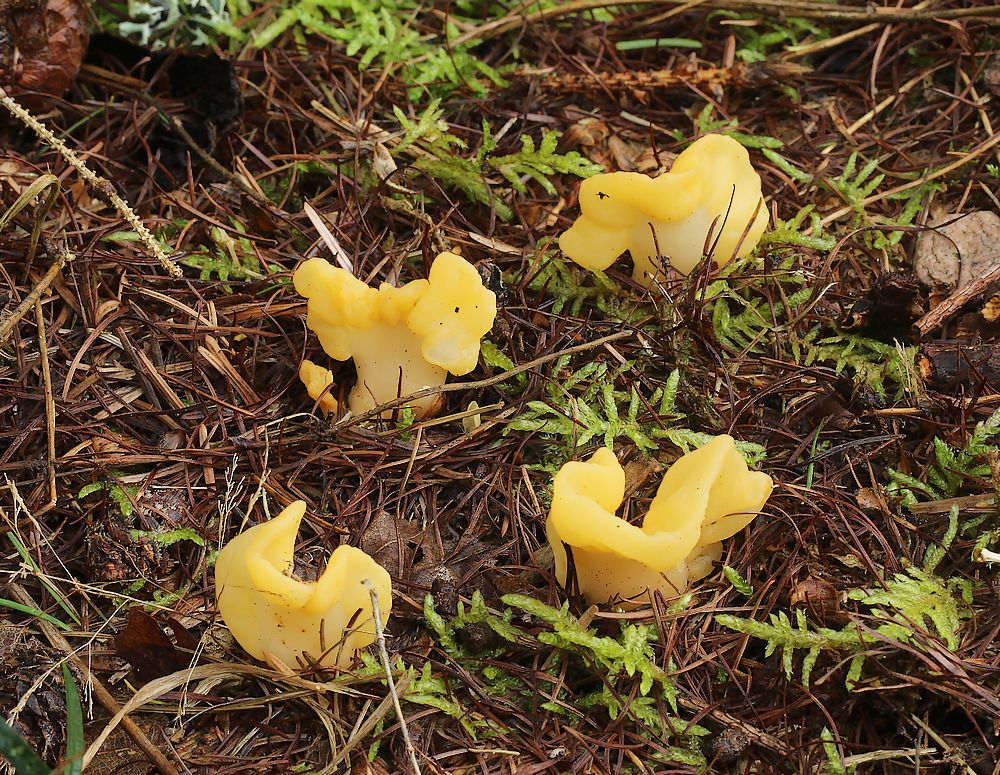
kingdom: Fungi
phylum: Ascomycota
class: Leotiomycetes
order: Rhytismatales
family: Cudoniaceae
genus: Spathularia
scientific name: Spathularia flavida
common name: gul spatelsvamp
